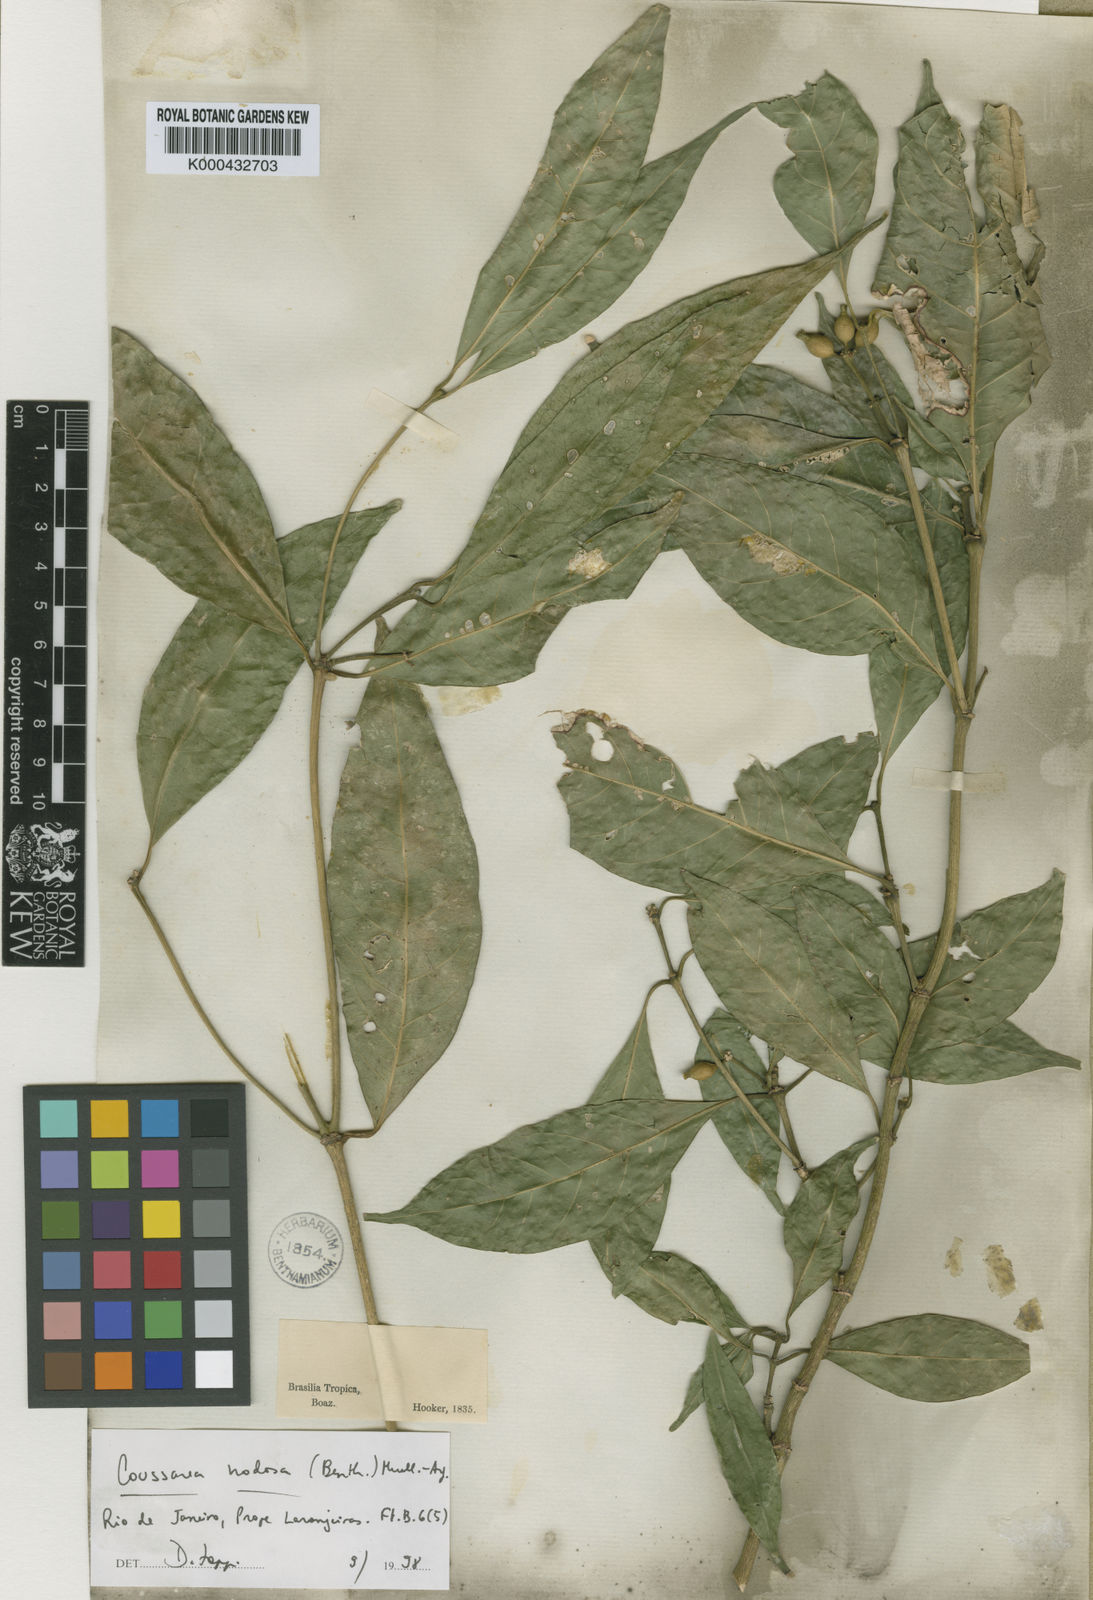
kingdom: Plantae
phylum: Tracheophyta
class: Magnoliopsida
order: Gentianales
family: Rubiaceae
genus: Coussarea
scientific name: Coussarea
